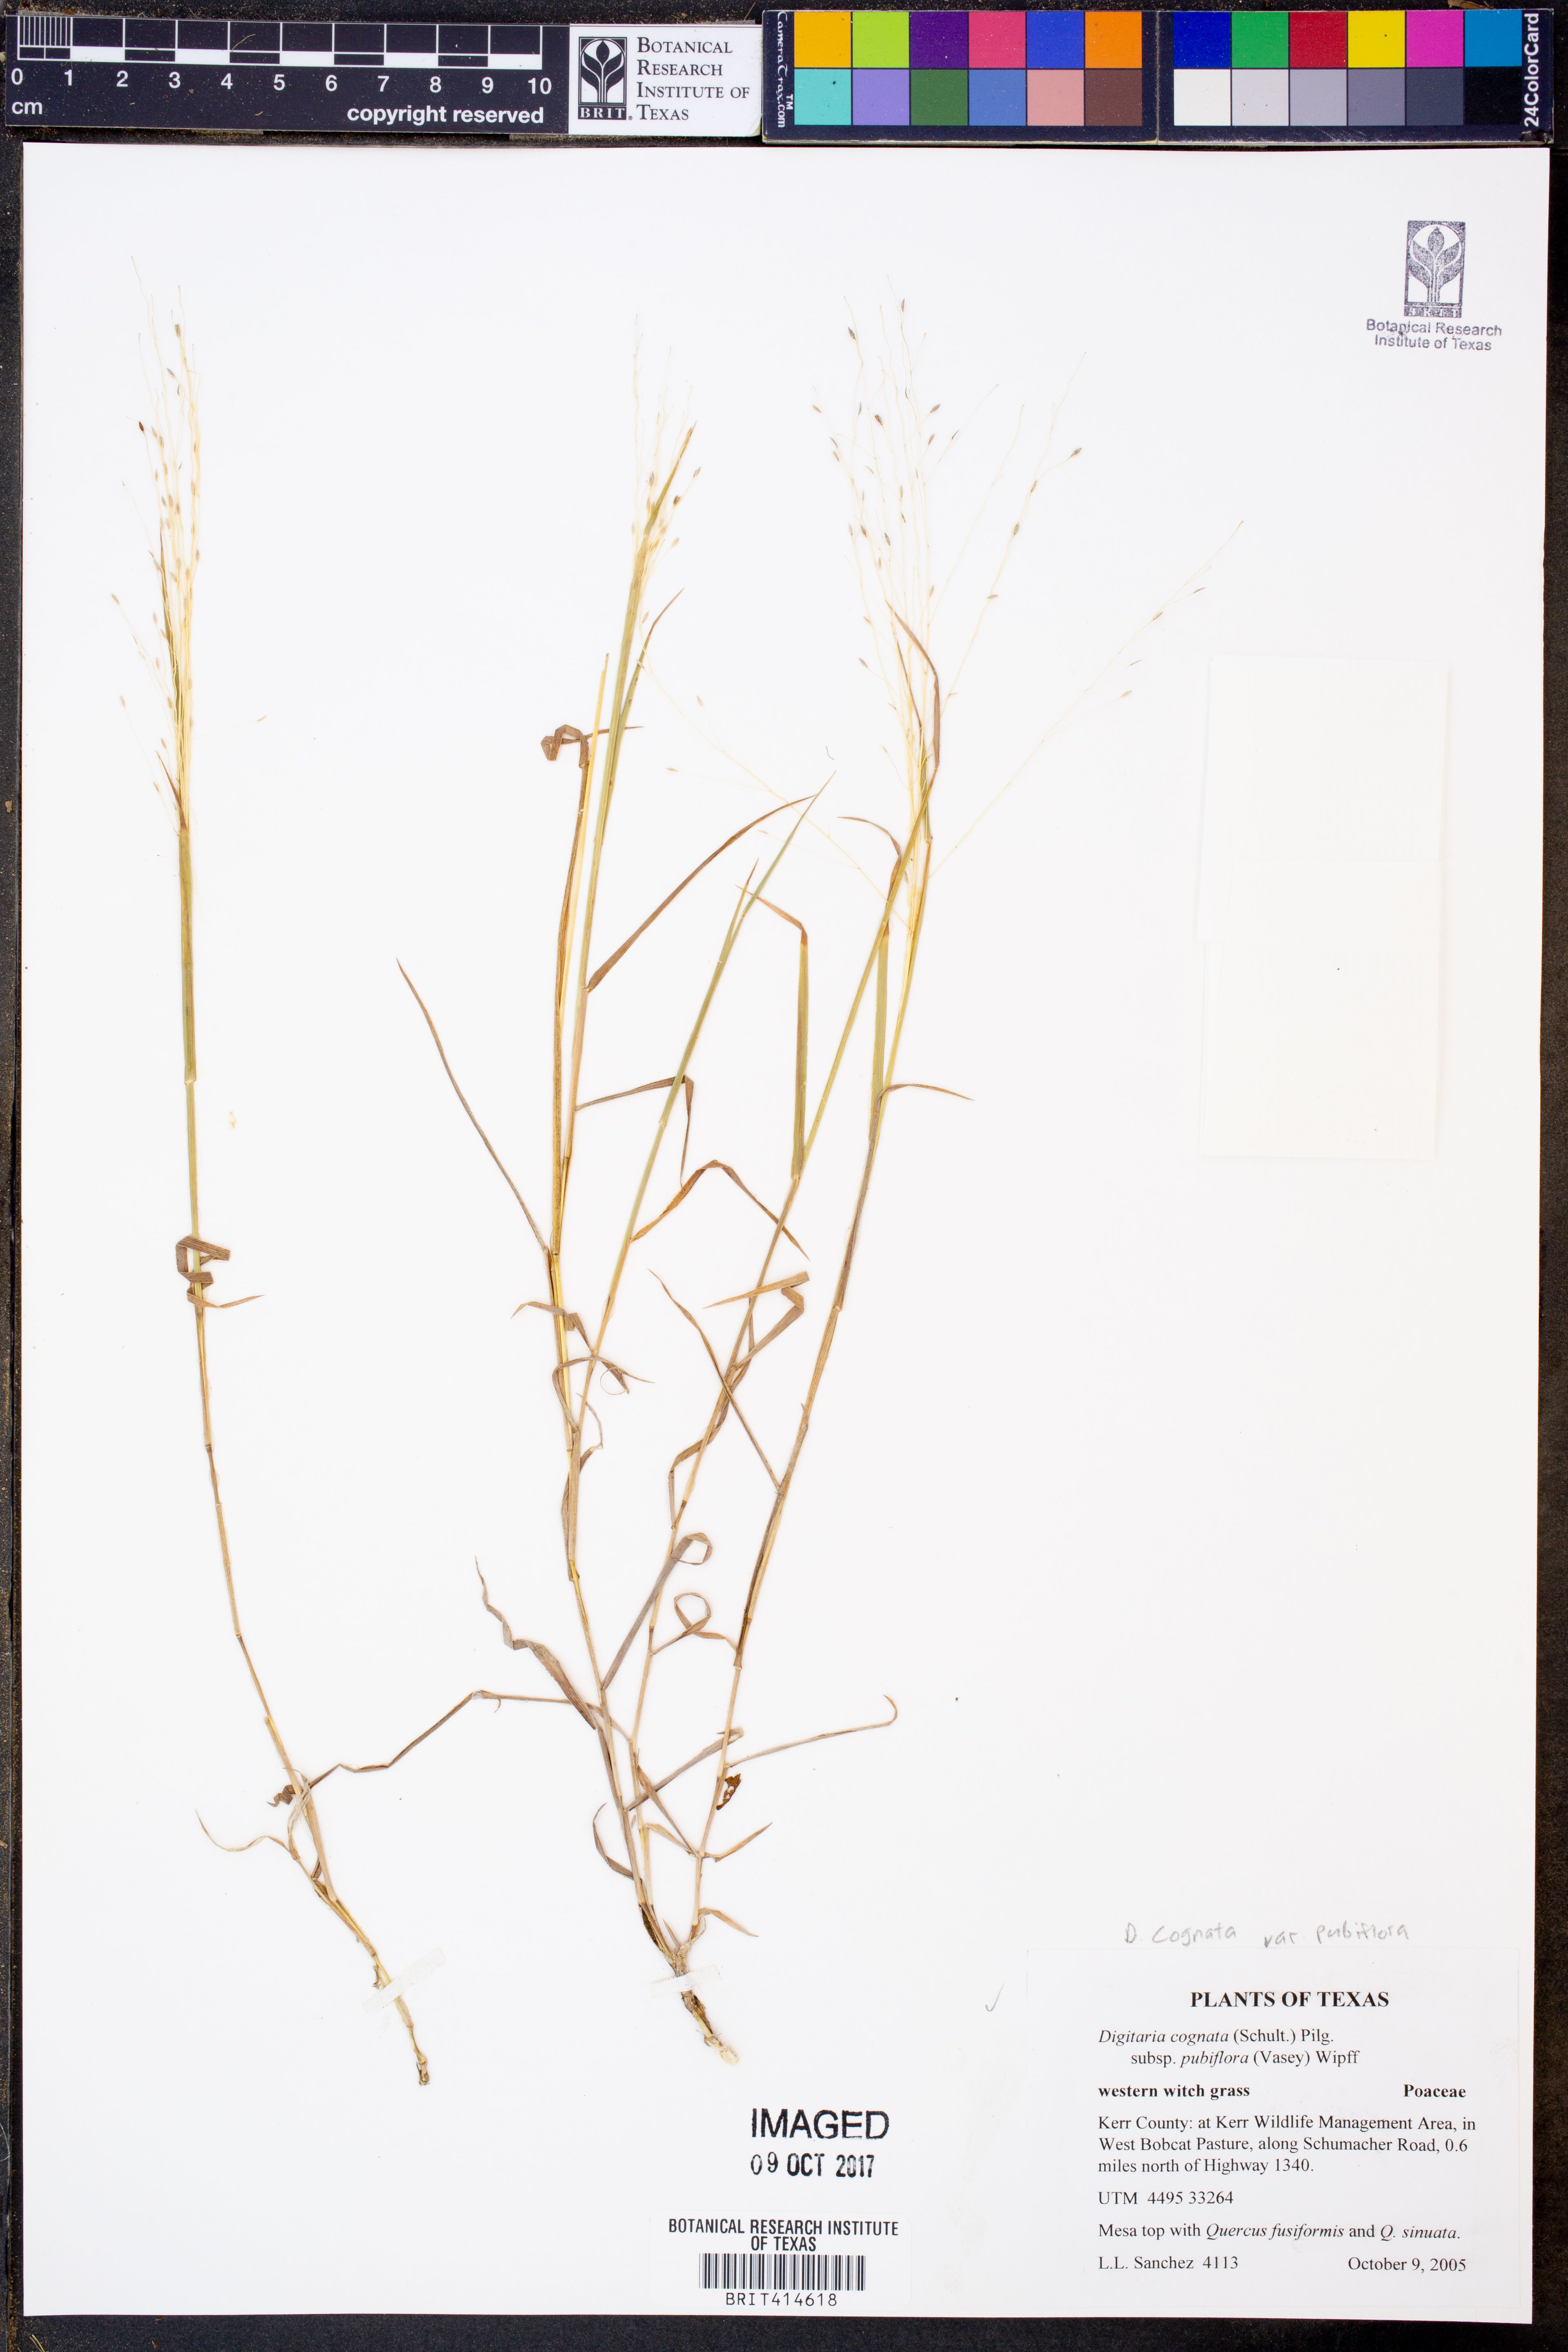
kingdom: Plantae
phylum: Tracheophyta
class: Liliopsida
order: Poales
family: Poaceae
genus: Digitaria
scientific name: Digitaria pubiflora
